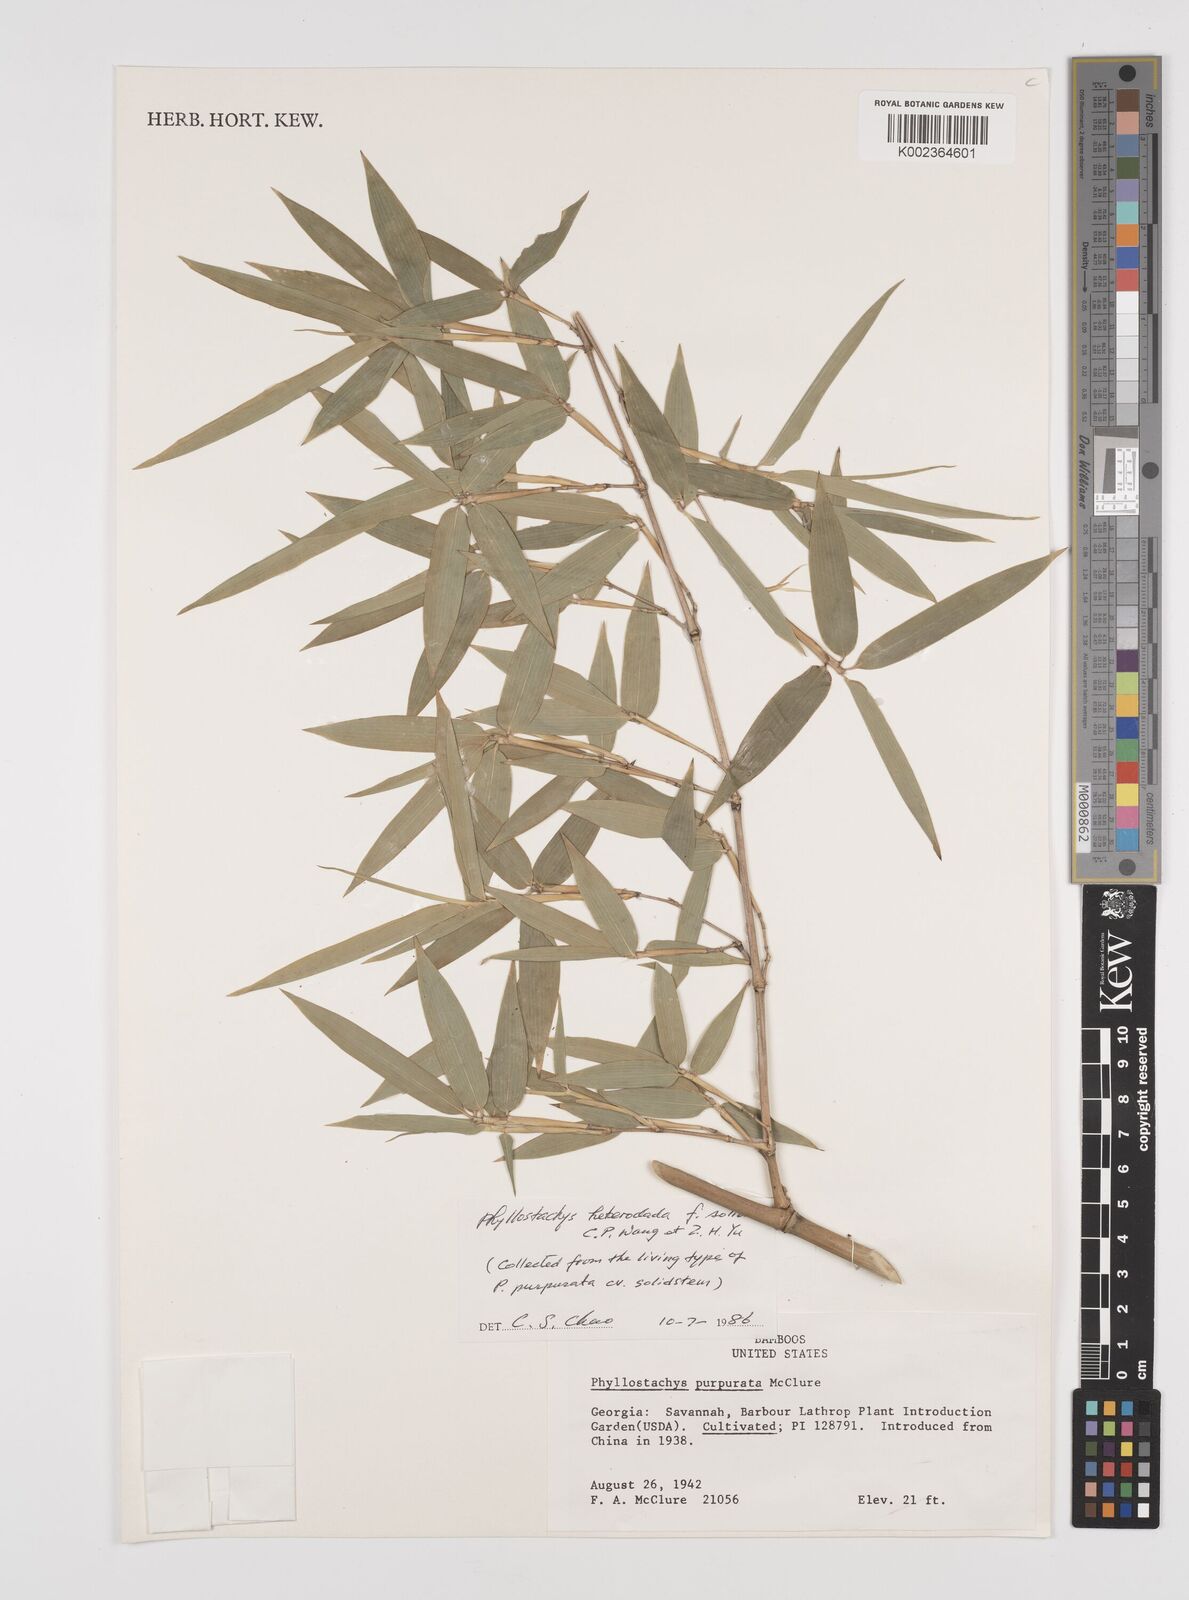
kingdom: Plantae
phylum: Tracheophyta
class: Liliopsida
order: Poales
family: Poaceae
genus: Phyllostachys
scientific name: Phyllostachys heteroclada
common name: Fishscale bamboo
